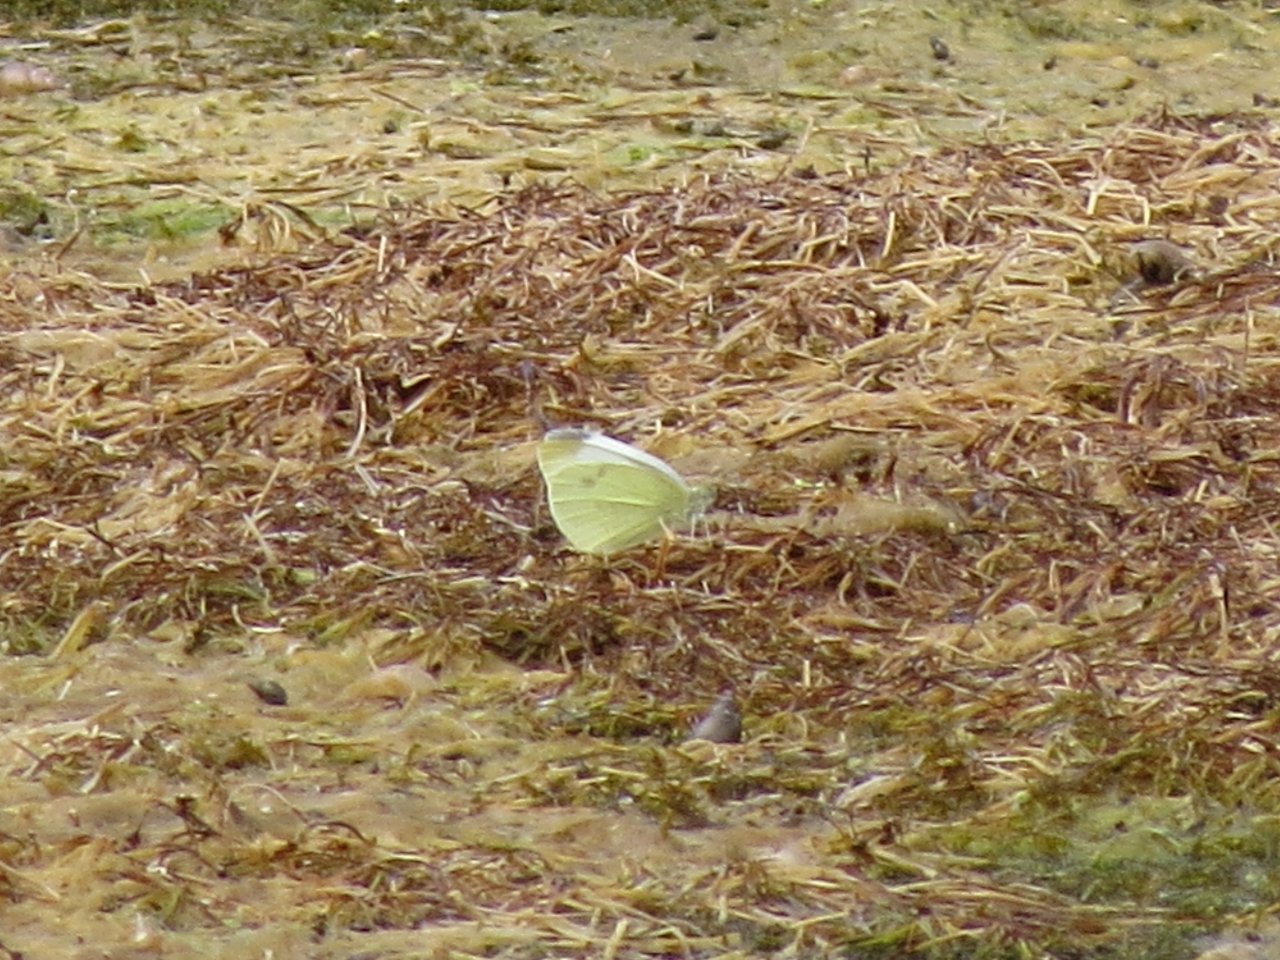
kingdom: Animalia
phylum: Arthropoda
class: Insecta
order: Lepidoptera
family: Pieridae
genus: Pieris
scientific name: Pieris rapae
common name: Cabbage White
